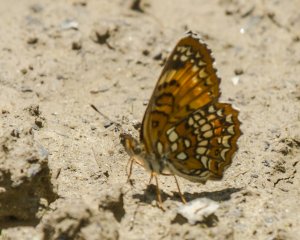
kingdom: Animalia
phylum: Arthropoda
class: Insecta
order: Lepidoptera
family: Nymphalidae
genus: Chlosyne
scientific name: Chlosyne harrisii
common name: Harris's Checkerspot
